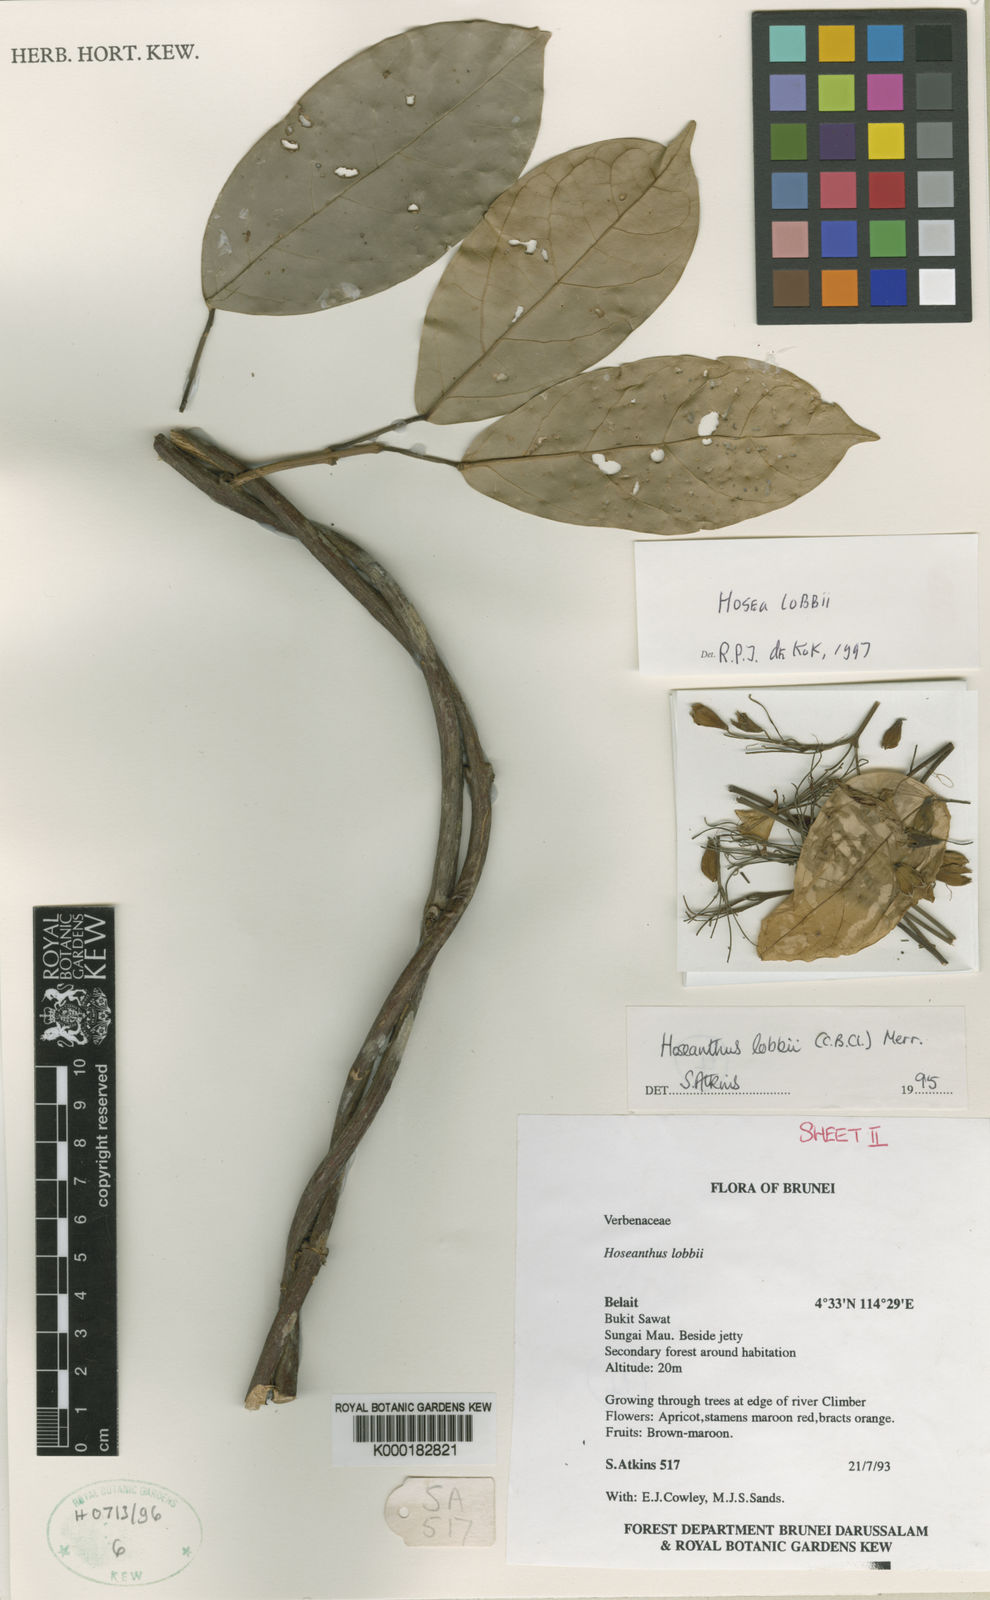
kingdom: Plantae
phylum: Tracheophyta
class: Magnoliopsida
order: Lamiales
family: Lamiaceae
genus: Hosea
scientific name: Hosea lobbii
